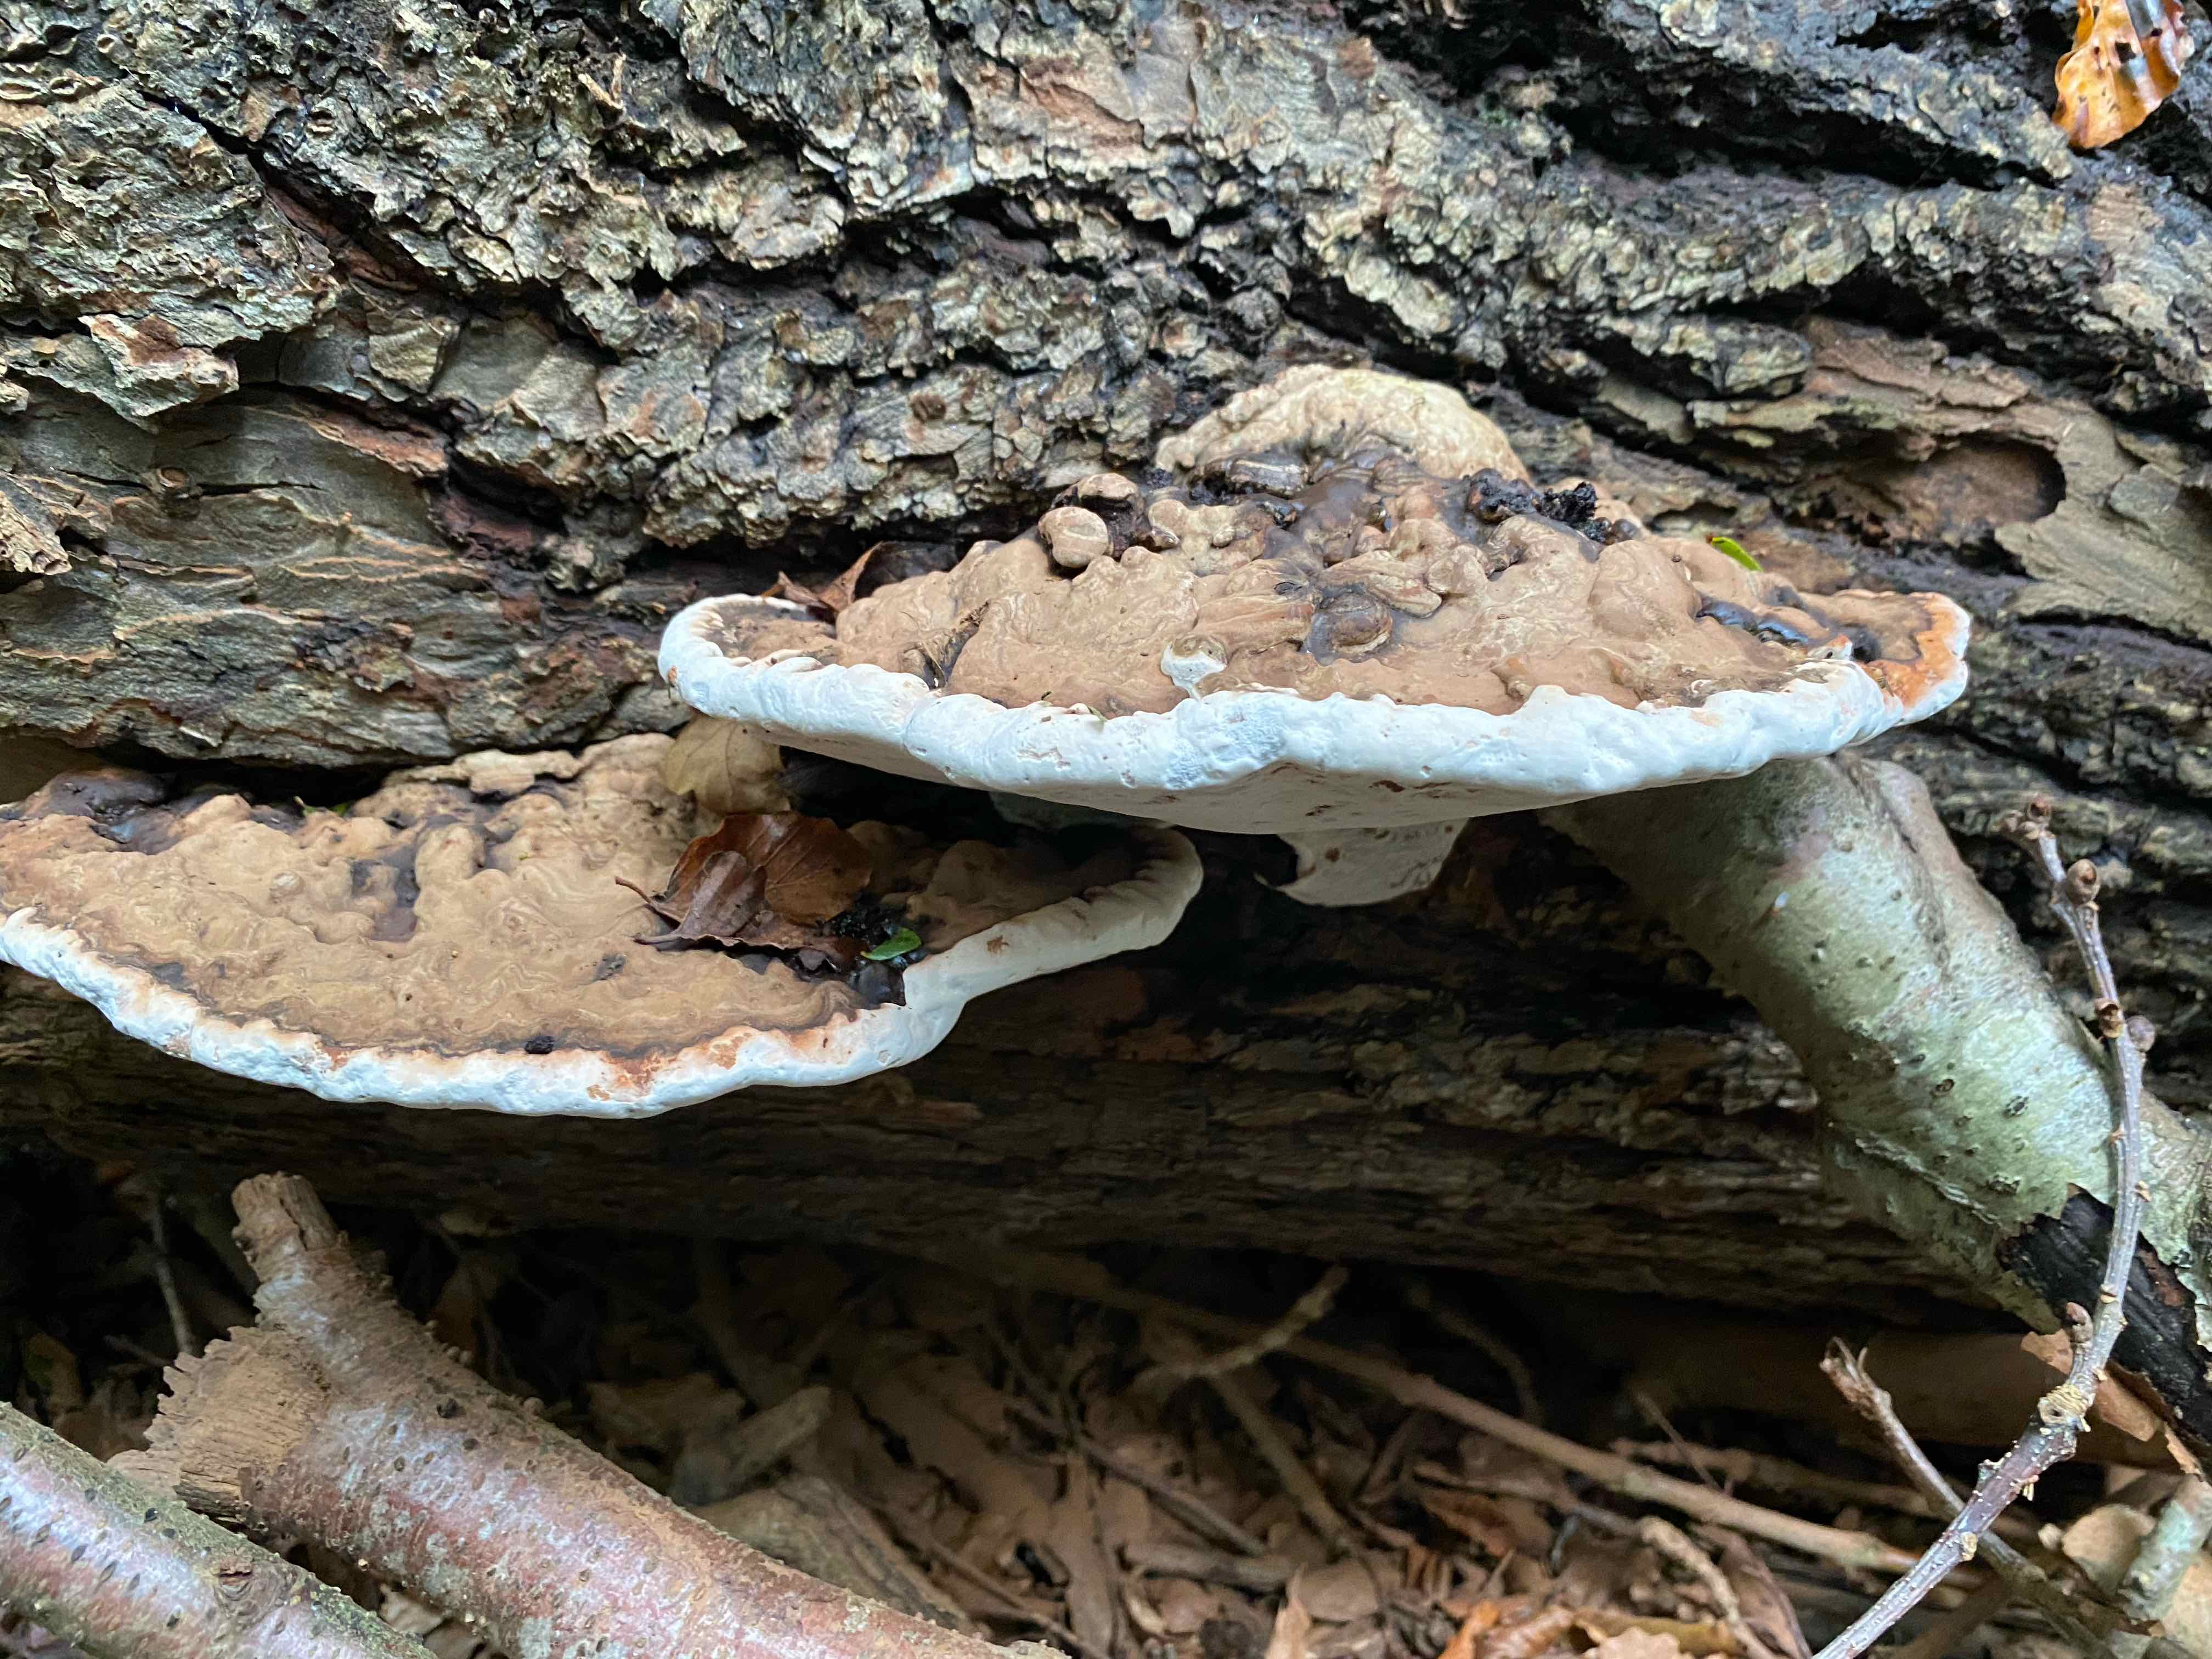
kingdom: Fungi
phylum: Basidiomycota
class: Agaricomycetes
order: Polyporales
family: Polyporaceae
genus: Ganoderma
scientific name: Ganoderma applanatum
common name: flad lakporesvamp
